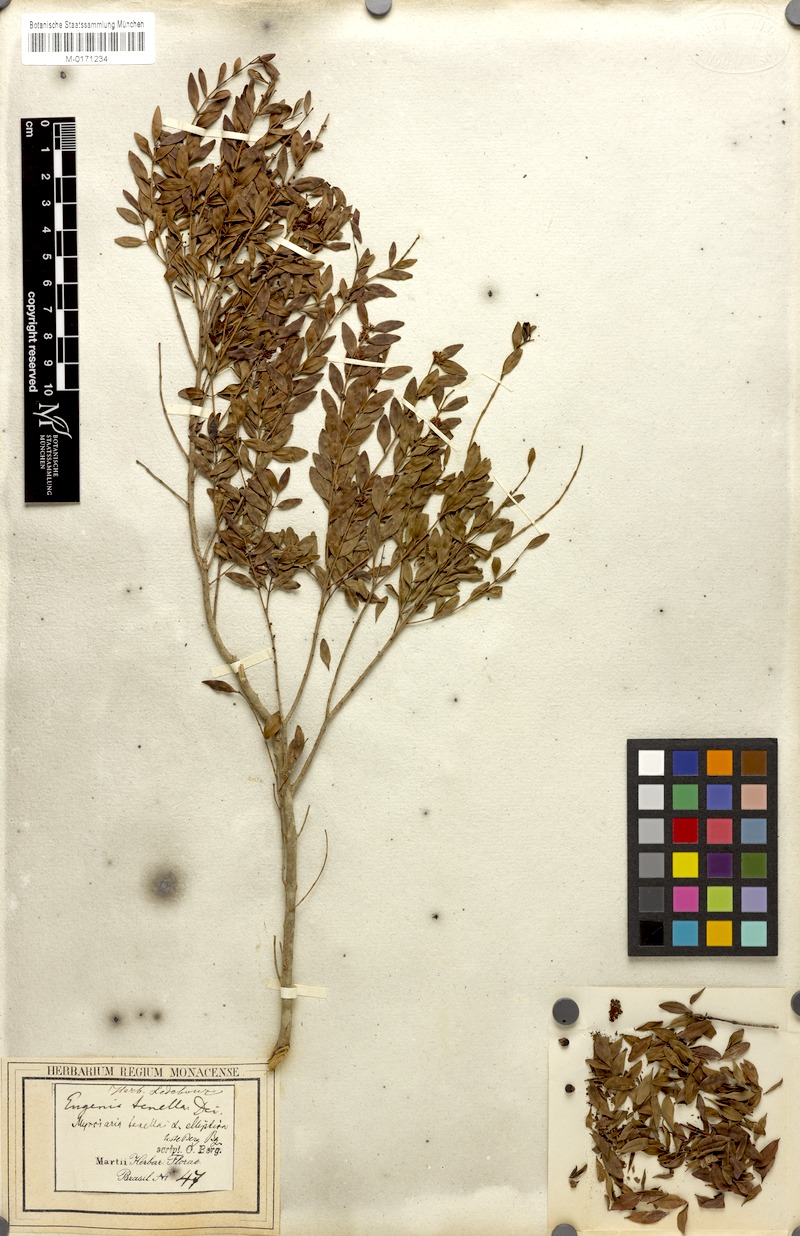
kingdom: Plantae
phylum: Tracheophyta
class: Magnoliopsida
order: Myrtales
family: Myrtaceae
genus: Myrciaria
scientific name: Myrciaria tenella
